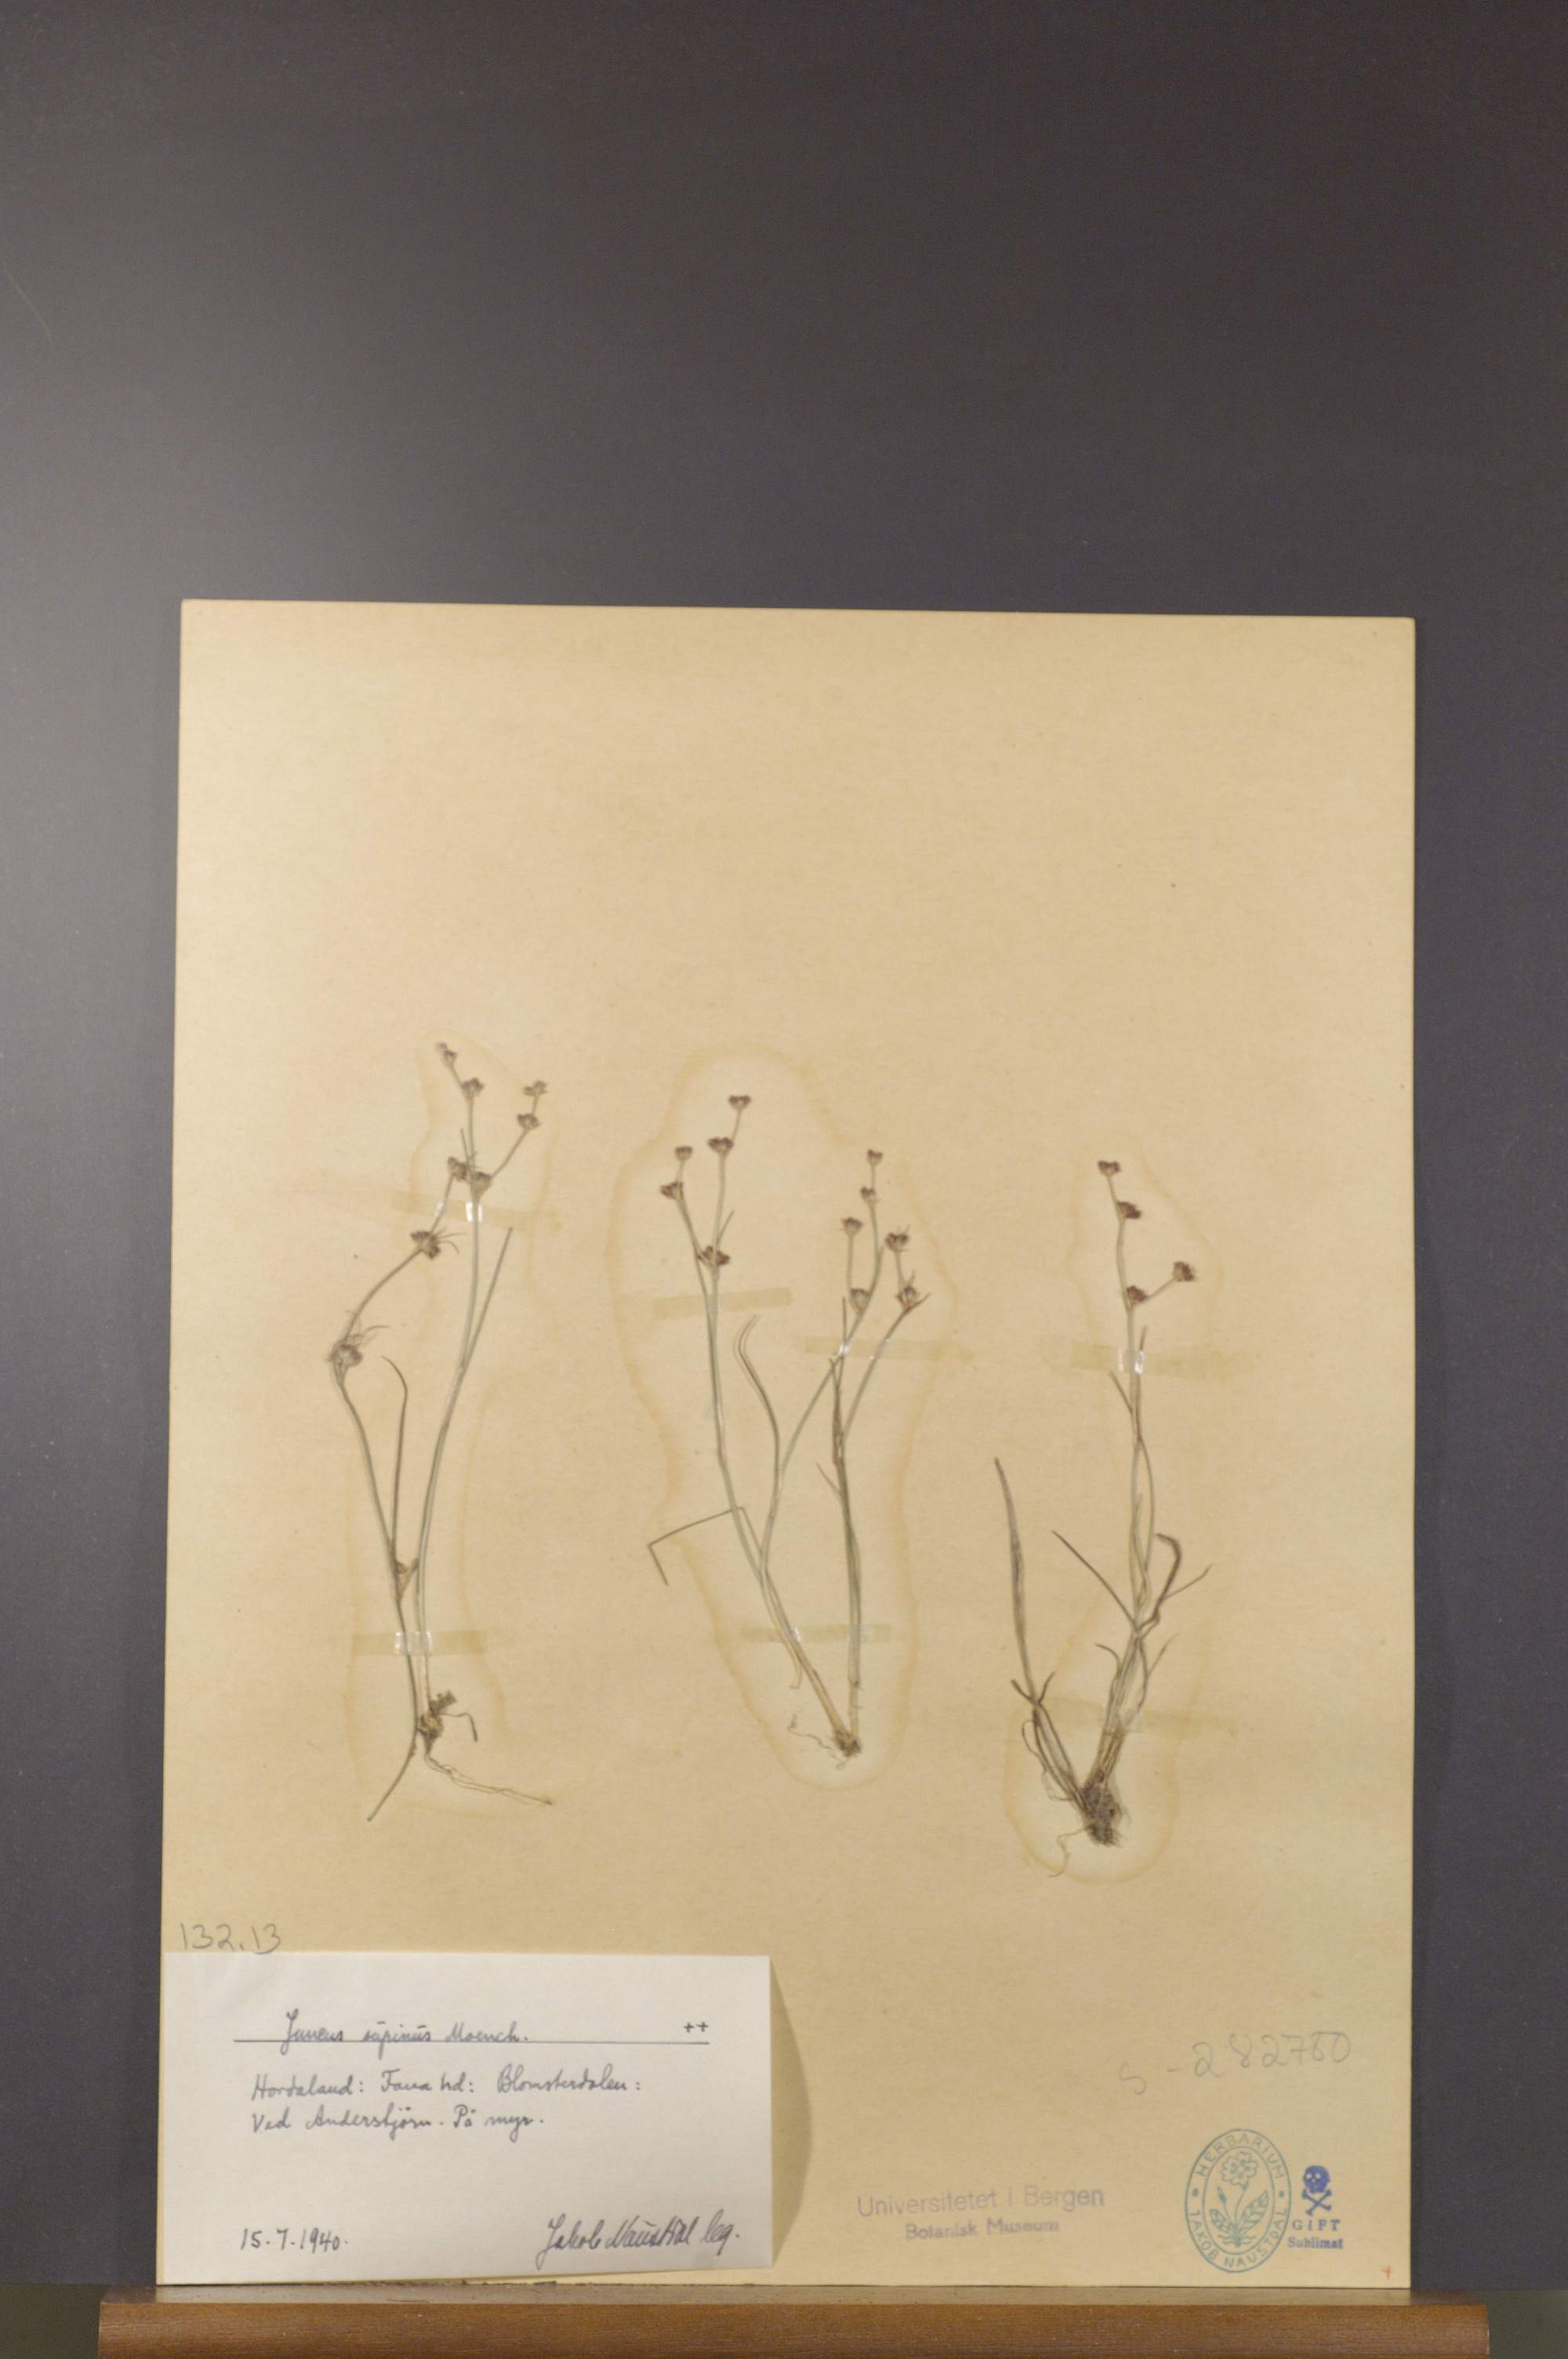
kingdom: Plantae
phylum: Tracheophyta
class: Liliopsida
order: Poales
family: Juncaceae
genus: Juncus
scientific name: Juncus bulbosus
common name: Bulbous rush
